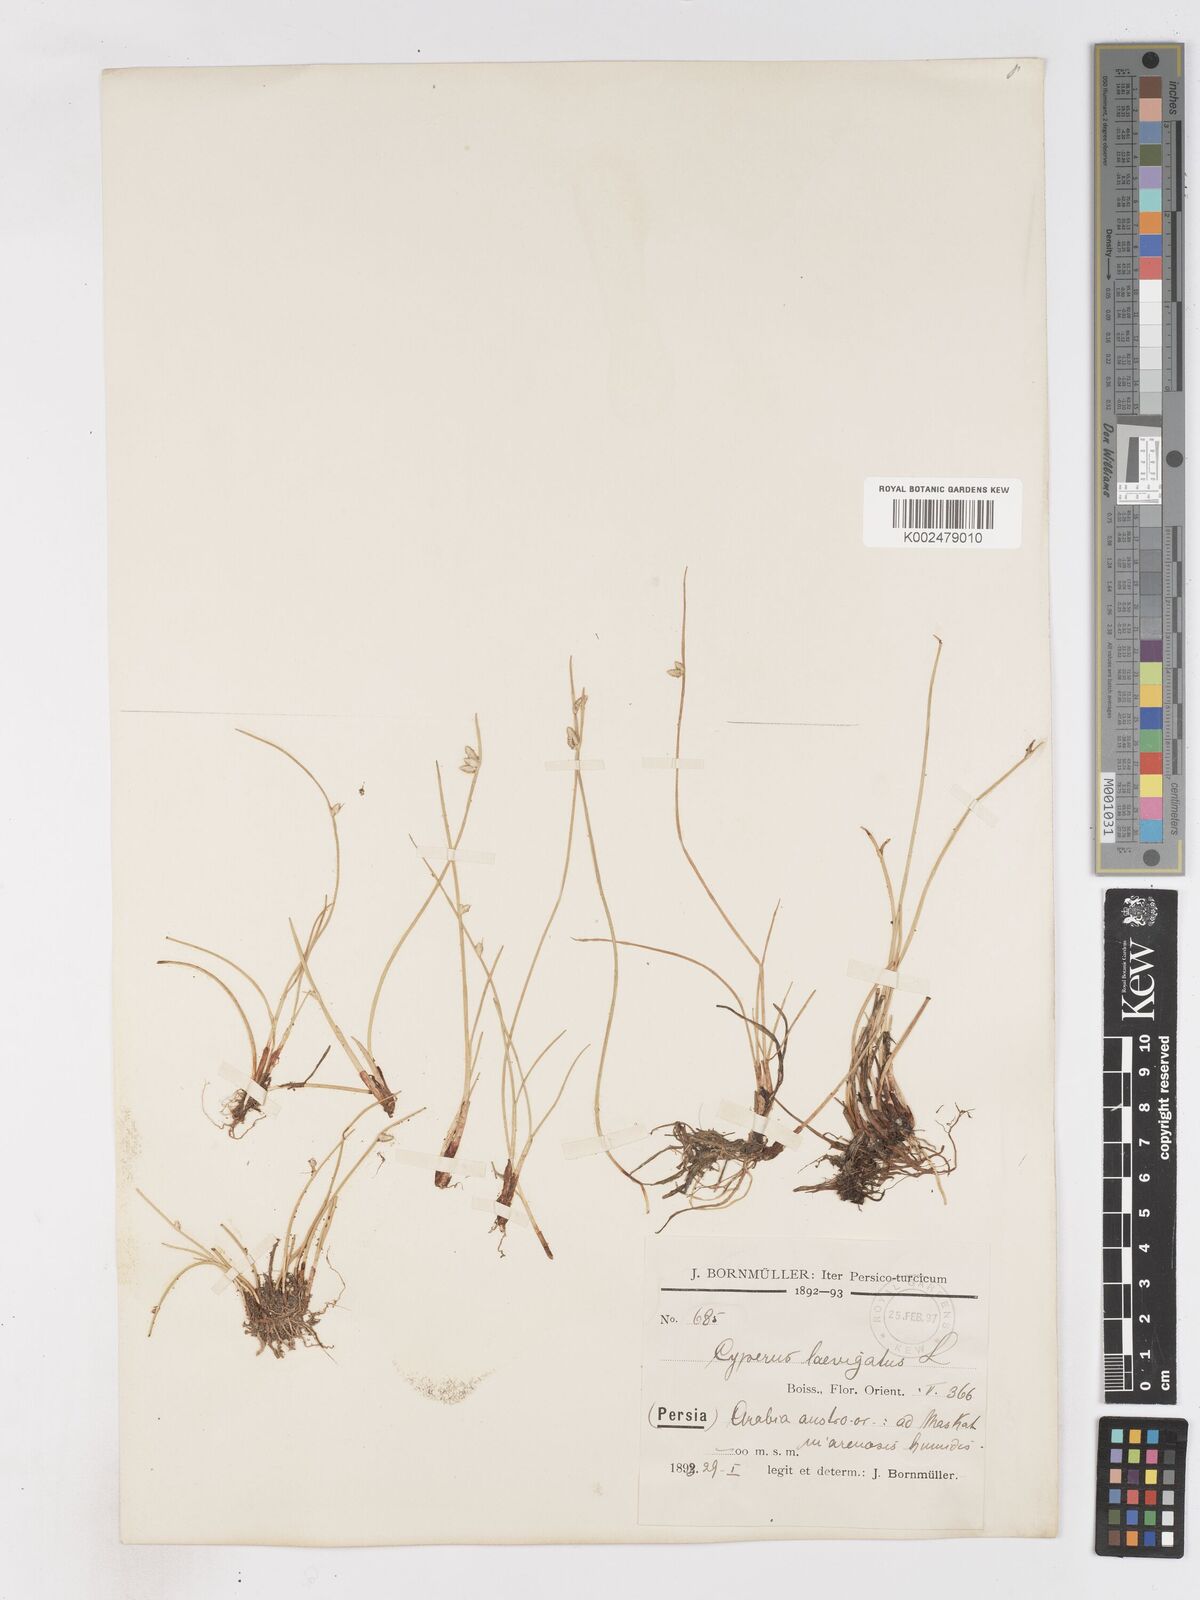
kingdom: Plantae
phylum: Tracheophyta
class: Liliopsida
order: Poales
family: Cyperaceae
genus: Cyperus
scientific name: Cyperus laevigatus
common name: Smooth flat sedge
